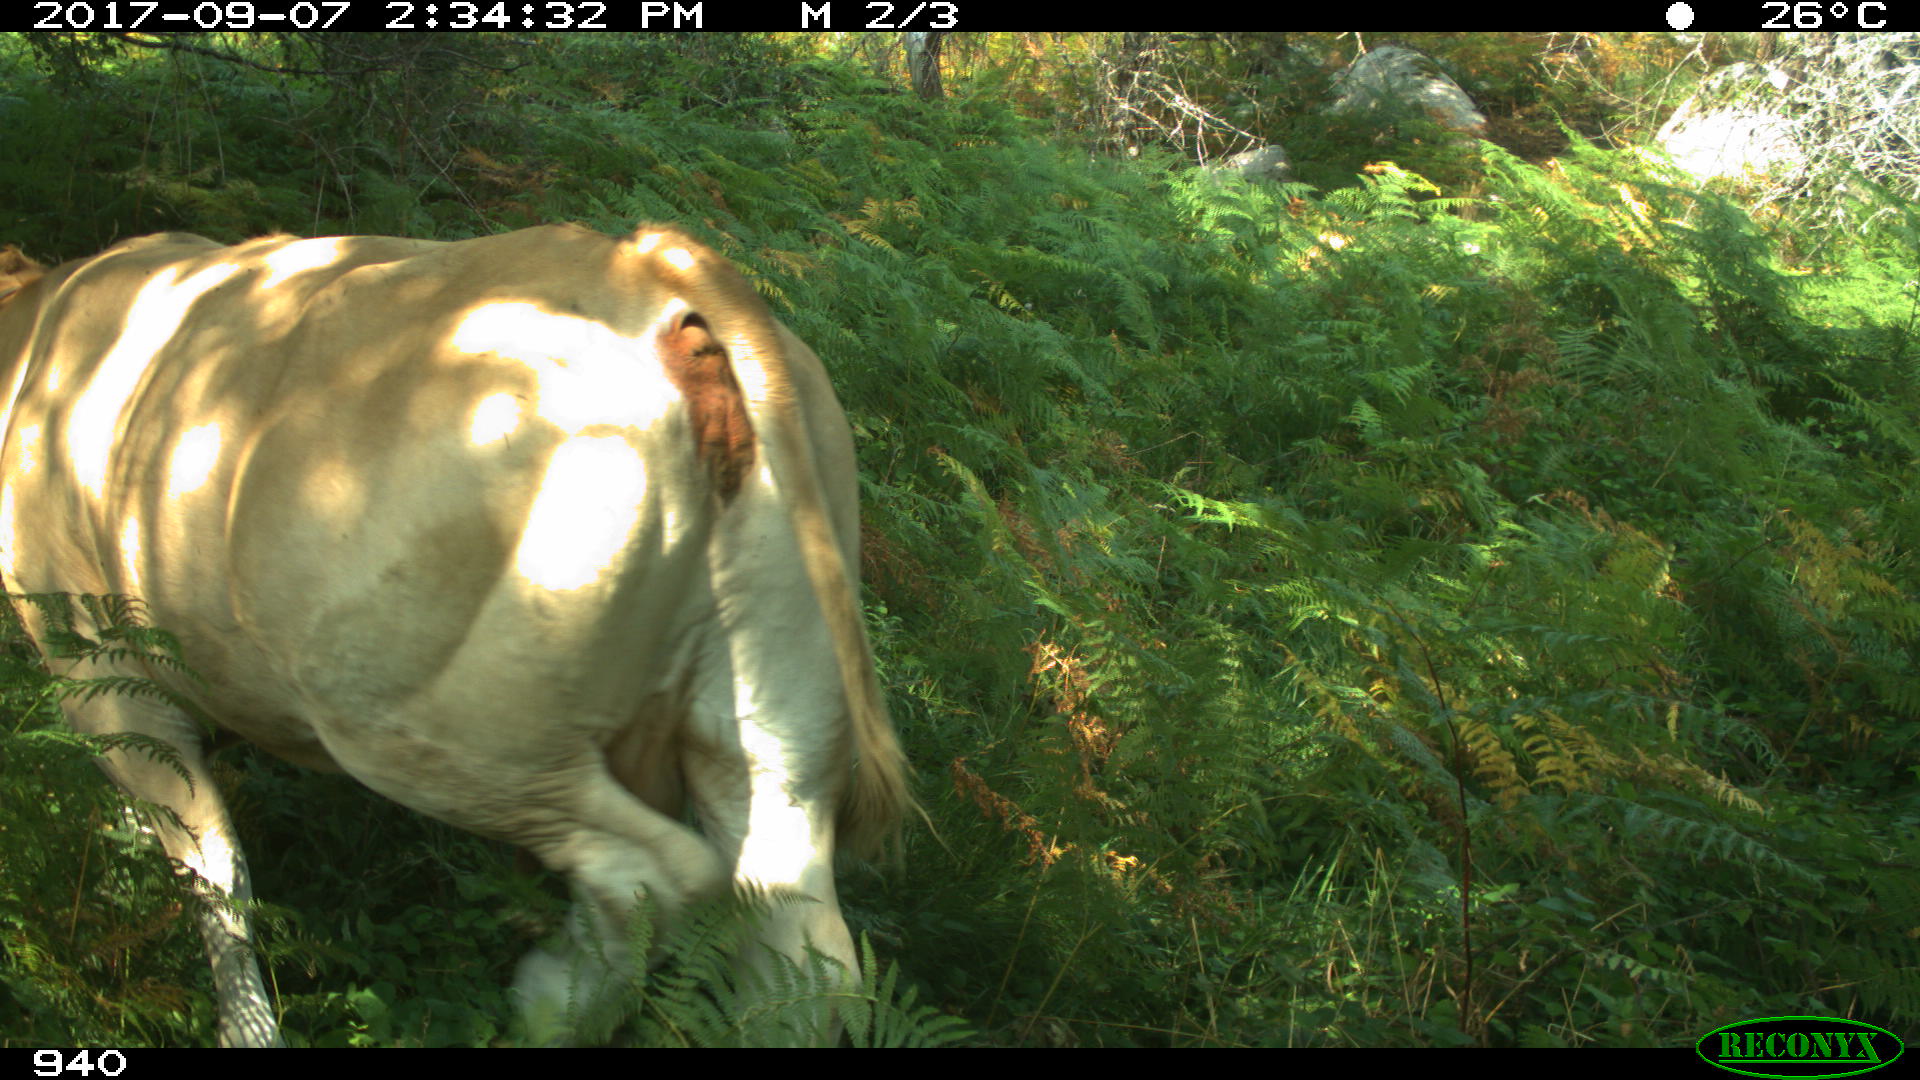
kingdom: Animalia
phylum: Chordata
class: Mammalia
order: Artiodactyla
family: Bovidae
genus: Bos
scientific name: Bos taurus
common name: Domesticated cattle
